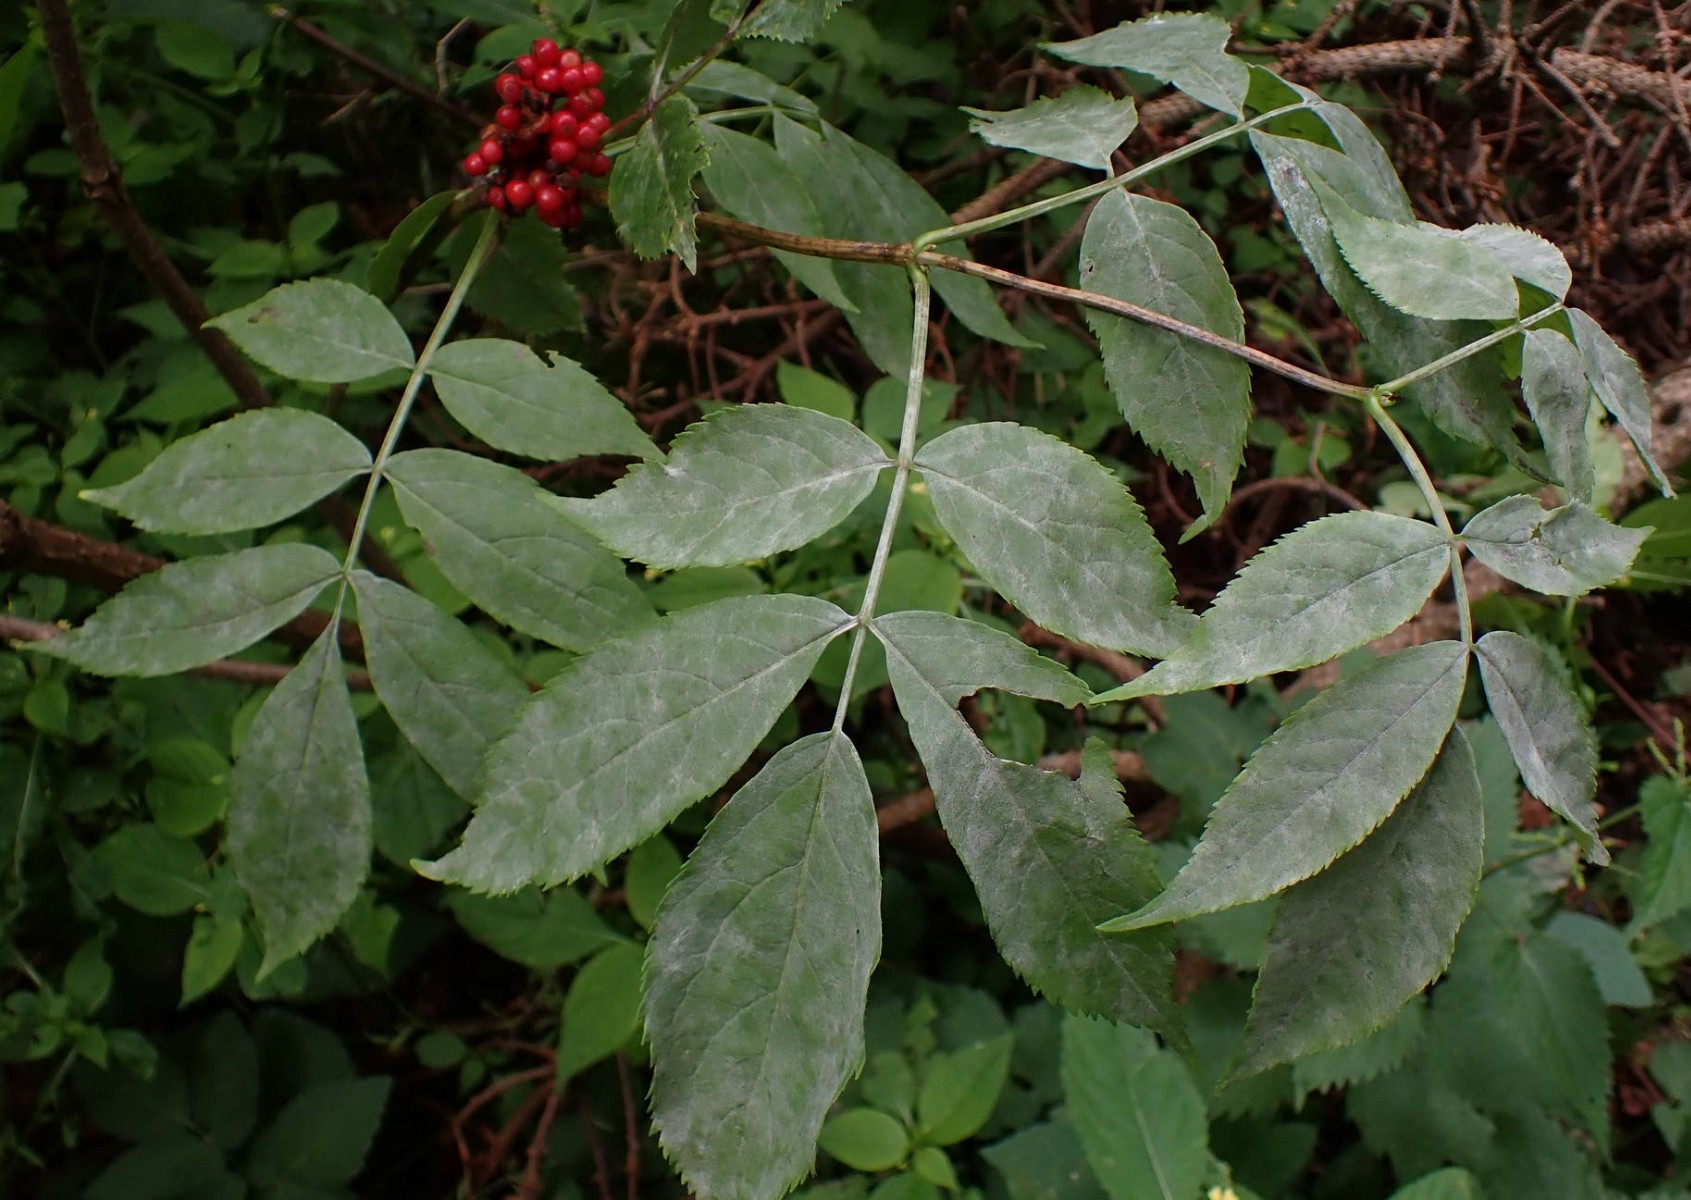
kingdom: Fungi
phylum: Ascomycota
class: Leotiomycetes
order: Helotiales
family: Erysiphaceae
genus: Erysiphe
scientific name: Erysiphe vanbruntiana
